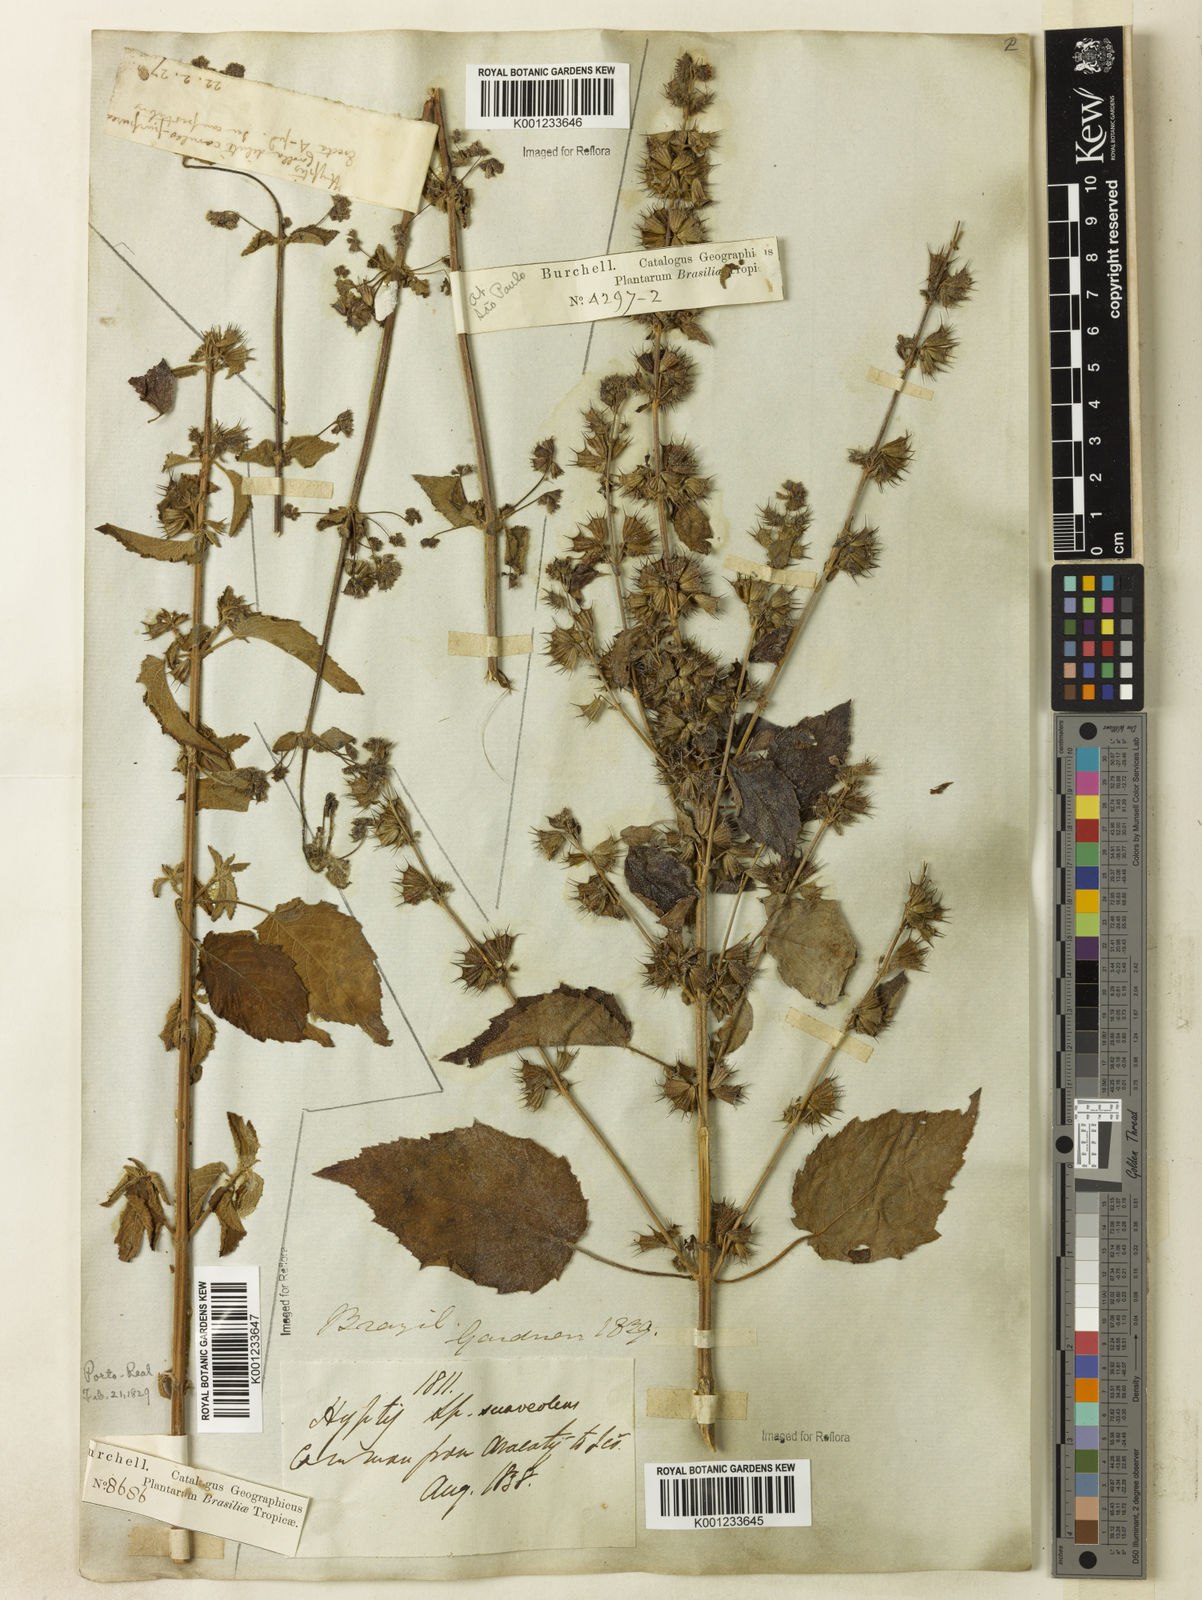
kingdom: Plantae
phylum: Tracheophyta
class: Magnoliopsida
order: Lamiales
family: Lamiaceae
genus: Mesosphaerum
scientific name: Mesosphaerum suaveolens
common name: Pignut
